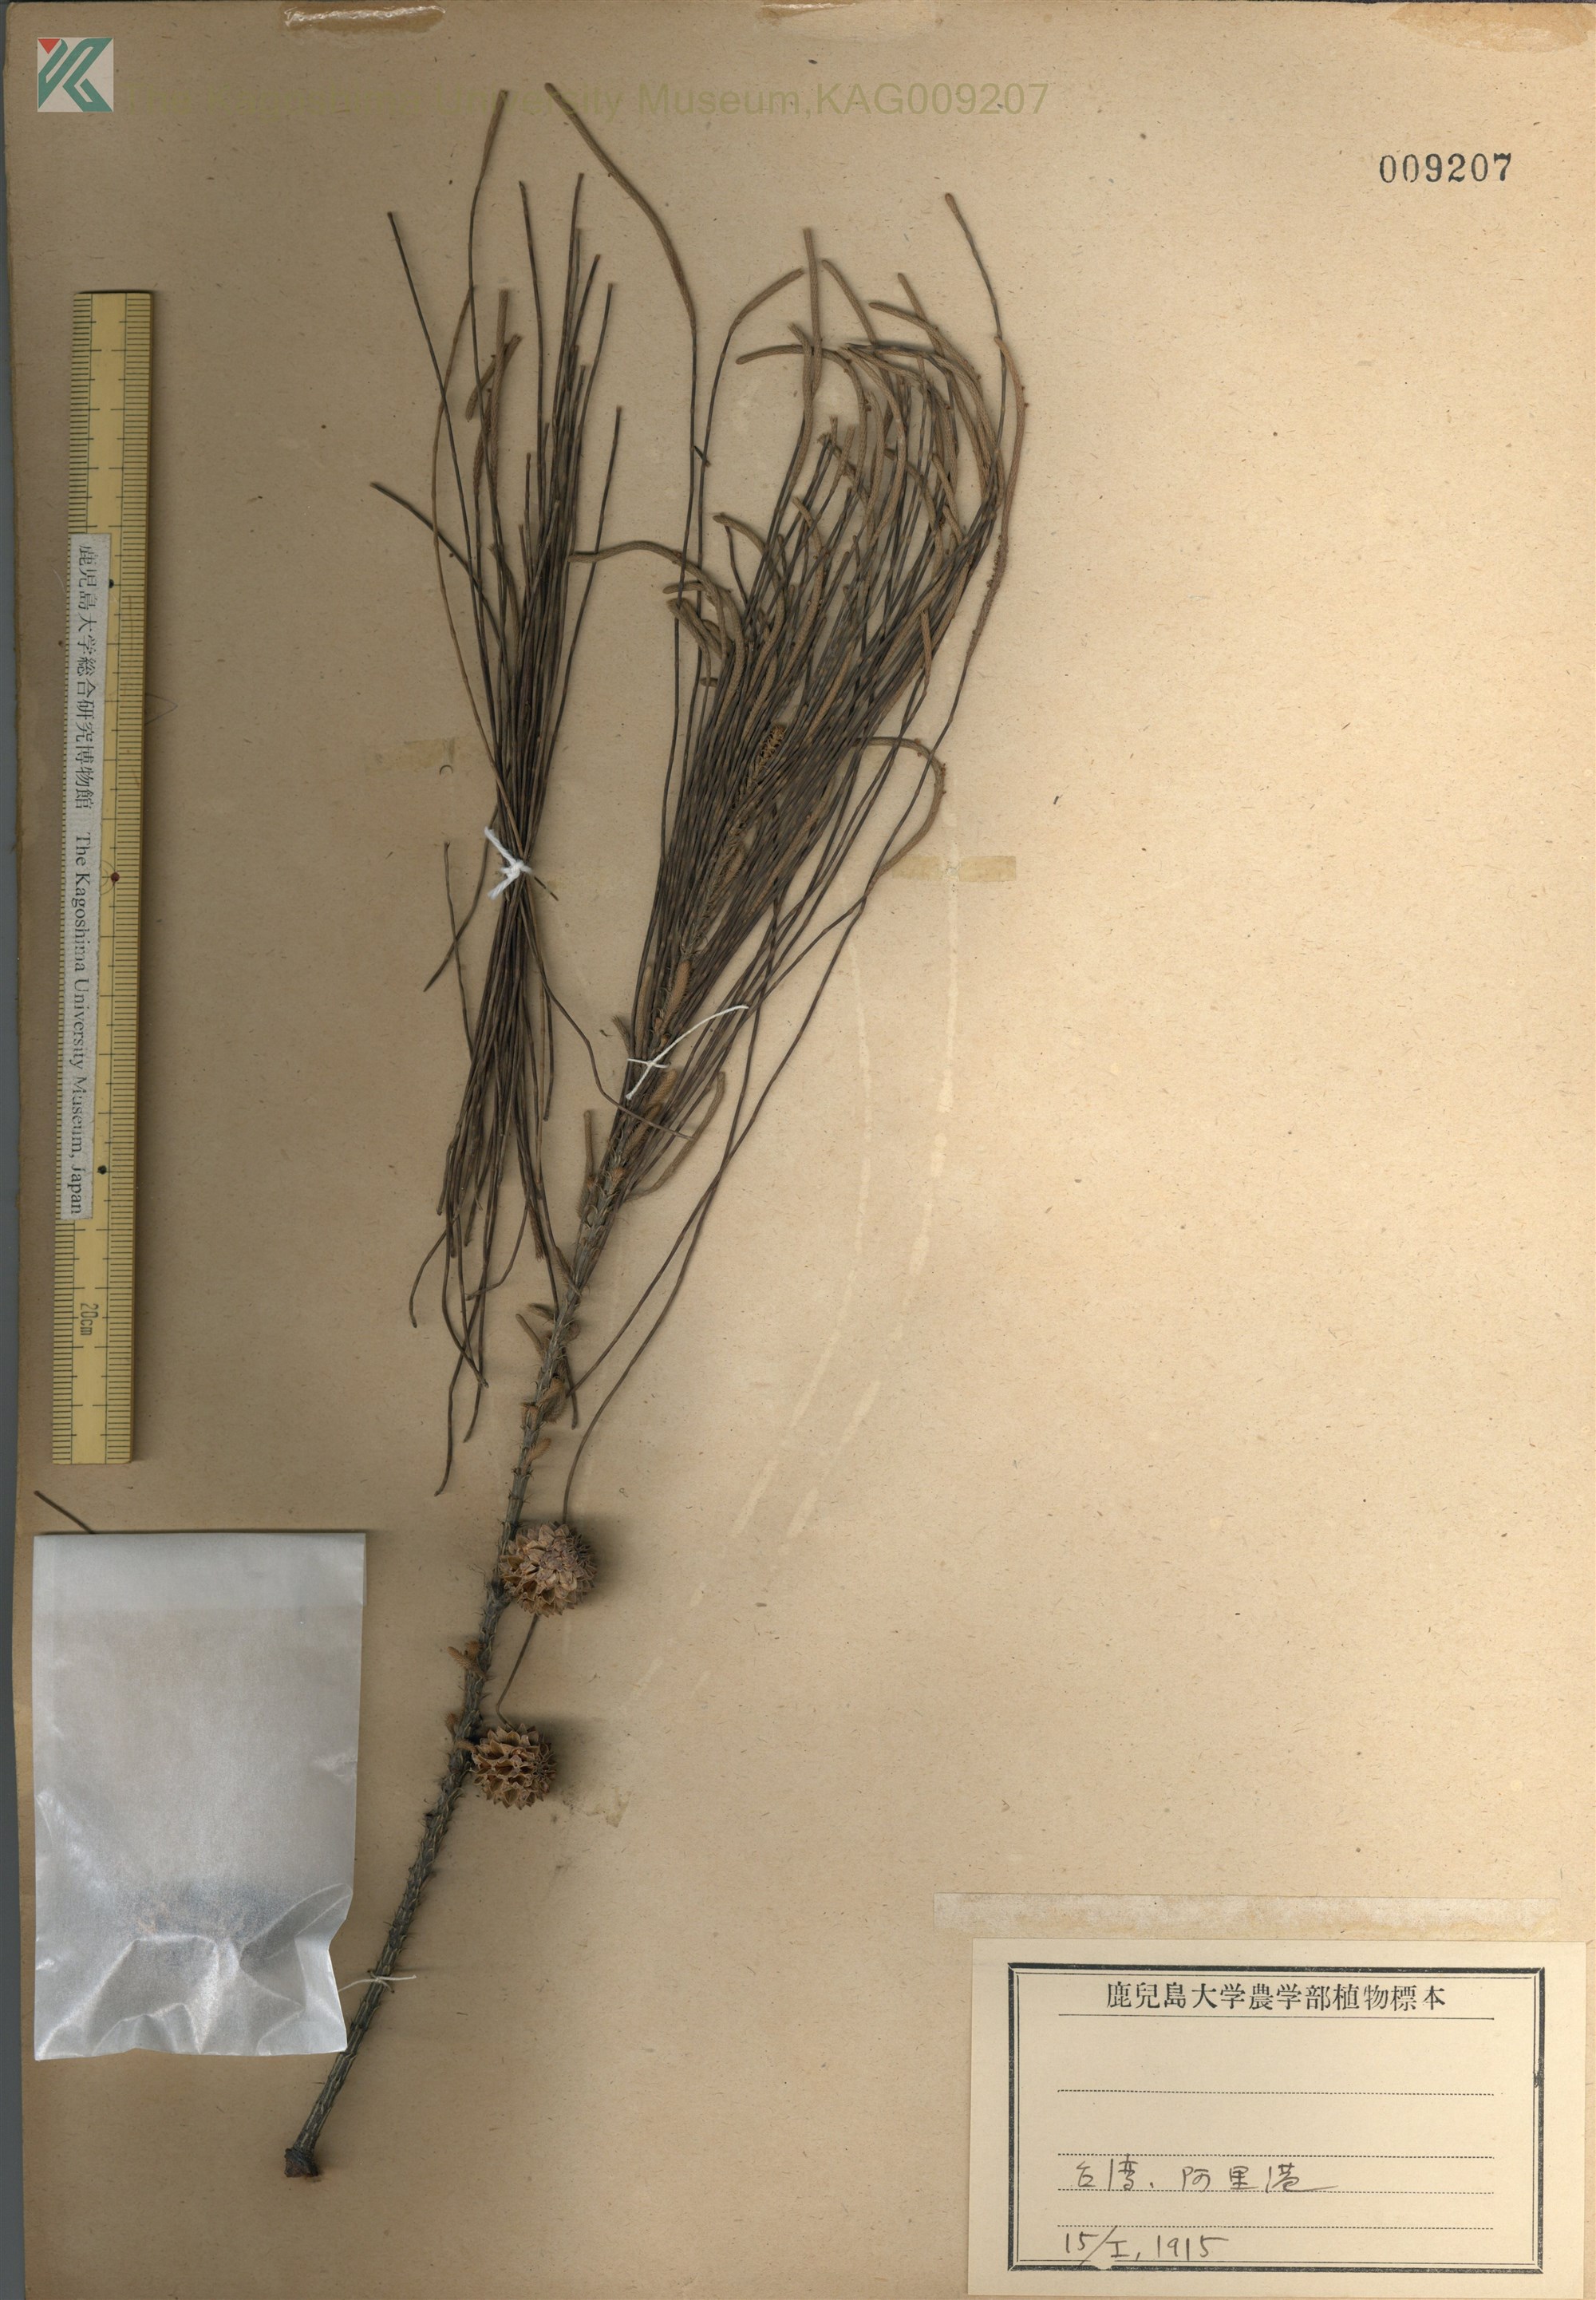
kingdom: Plantae
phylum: Tracheophyta
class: Magnoliopsida
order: Fagales
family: Casuarinaceae
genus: Casuarina
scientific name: Casuarina equisetifolia
